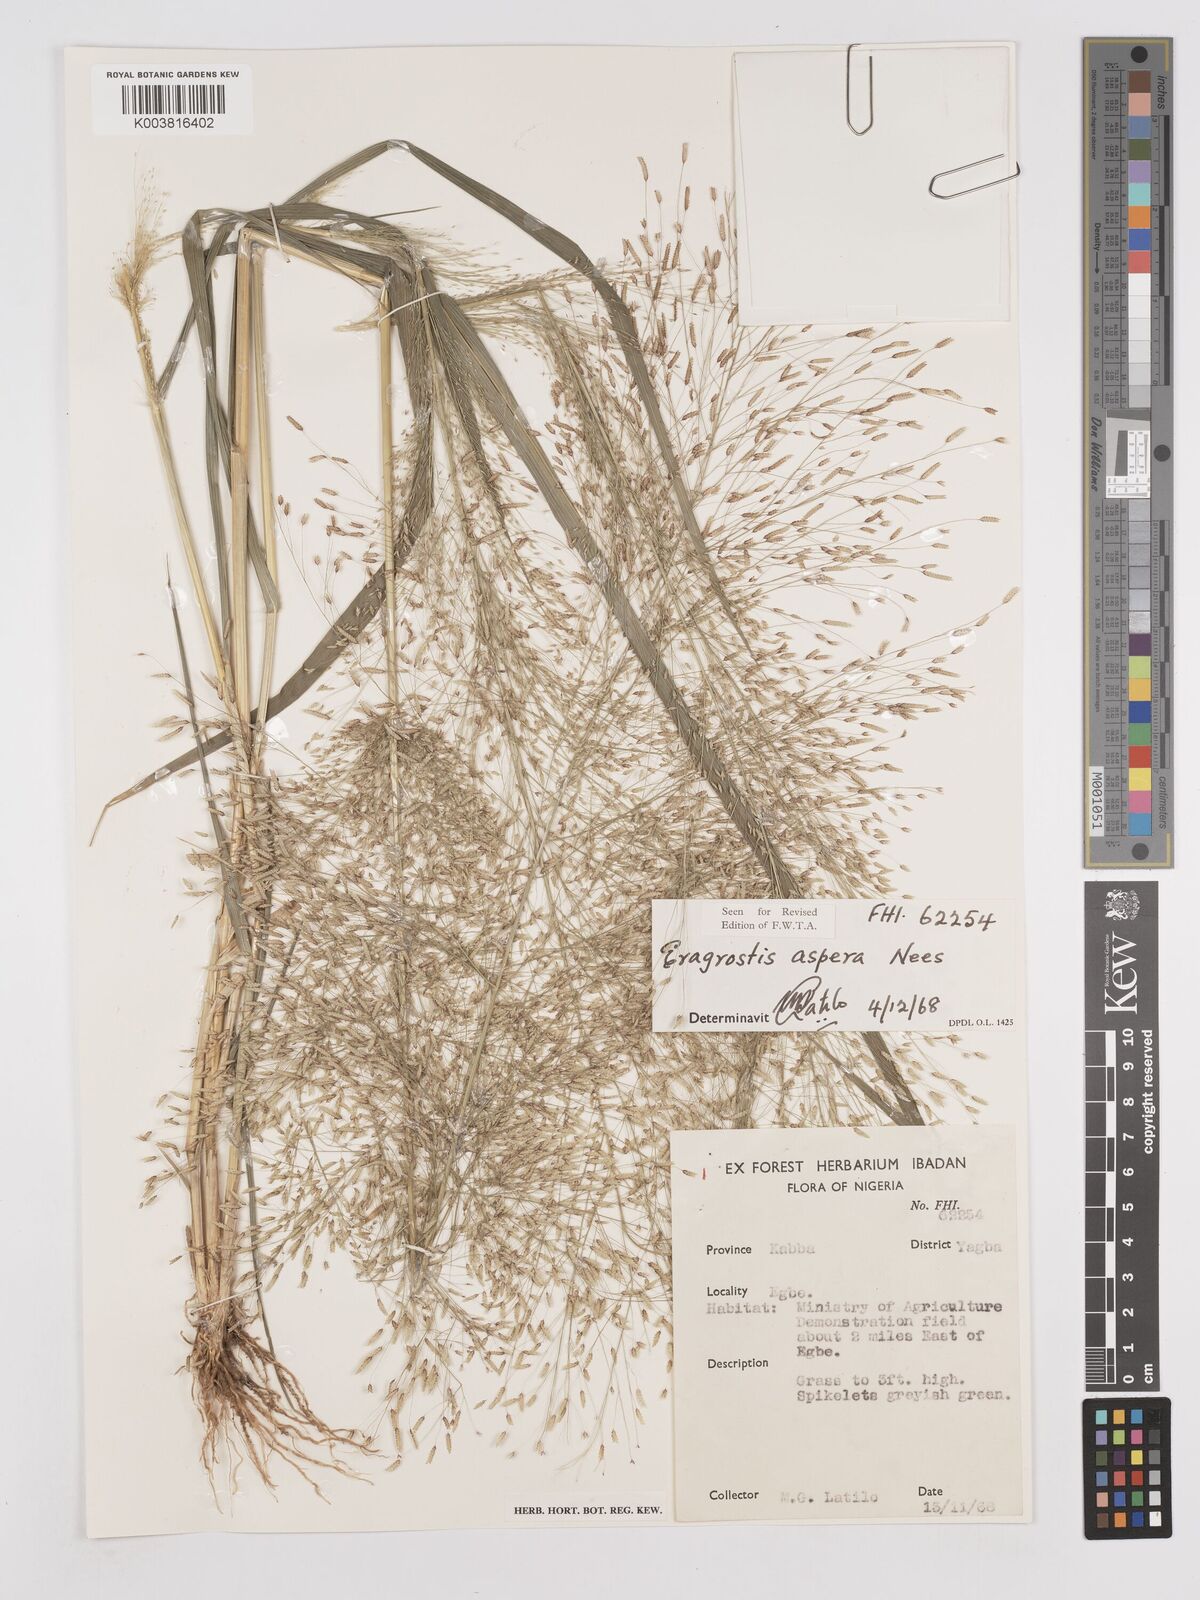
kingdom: Plantae
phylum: Tracheophyta
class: Liliopsida
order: Poales
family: Poaceae
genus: Eragrostis
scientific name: Eragrostis aspera
